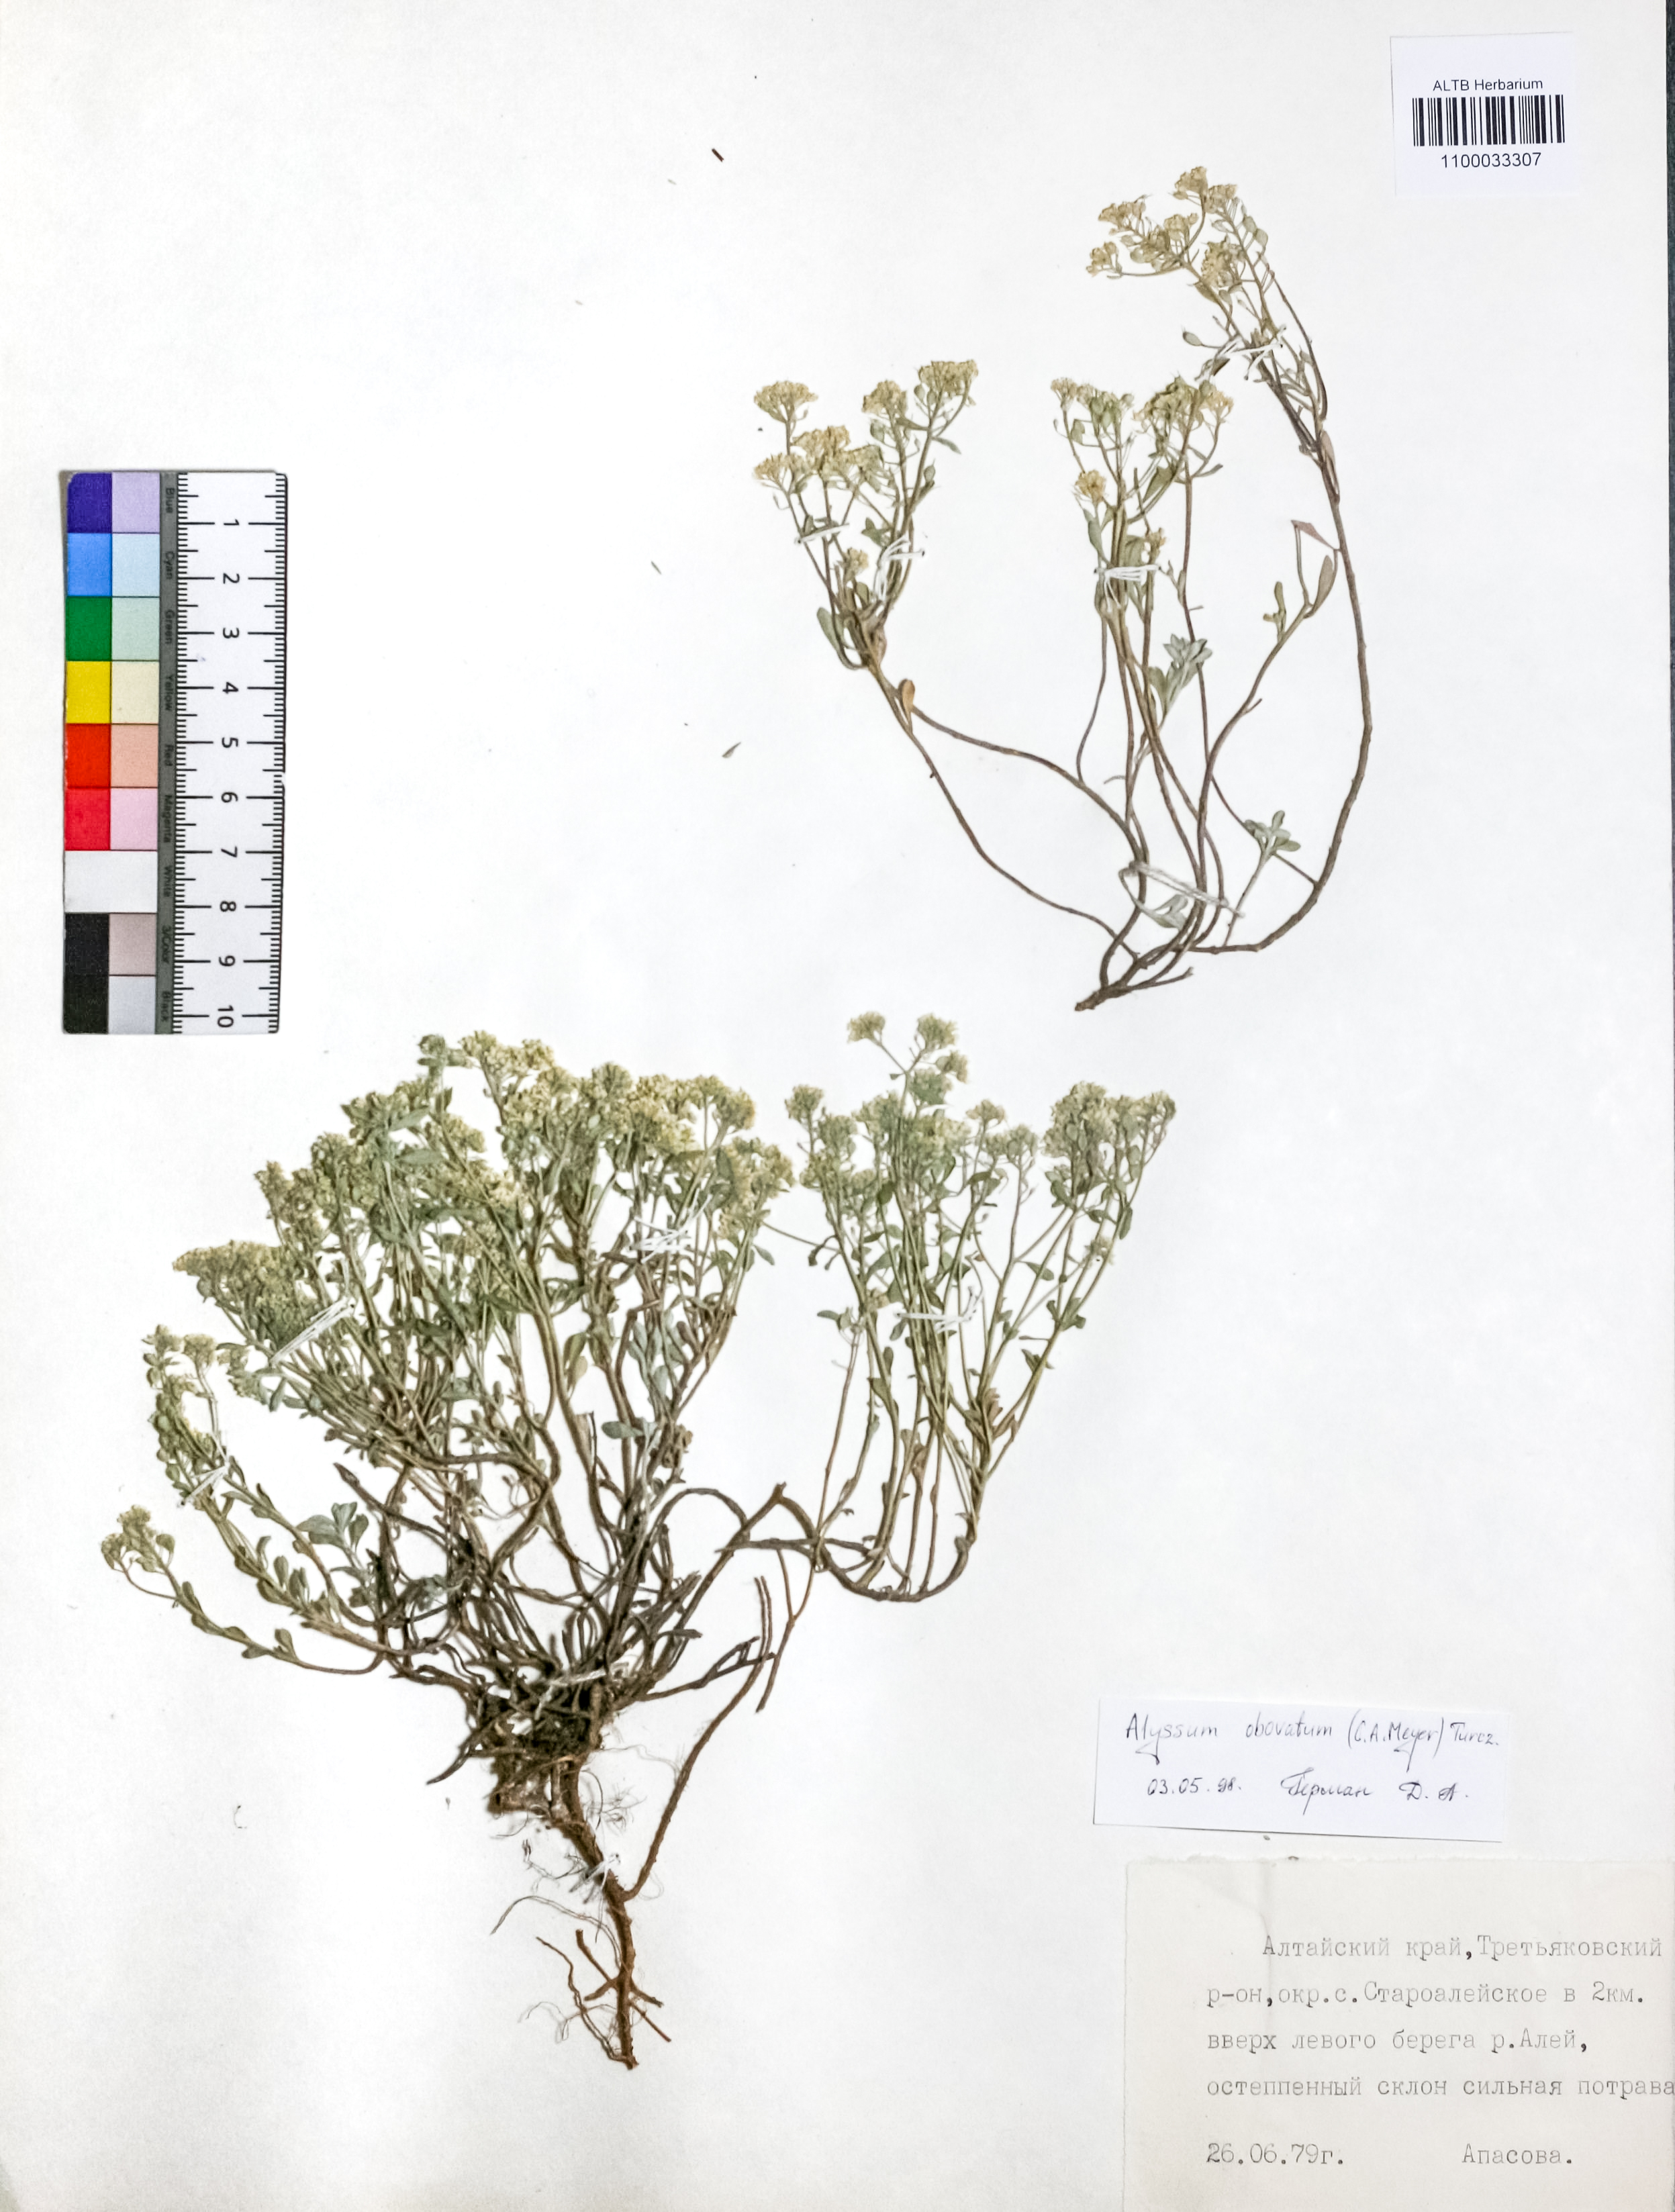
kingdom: Plantae
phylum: Tracheophyta
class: Magnoliopsida
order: Brassicales
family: Brassicaceae
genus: Odontarrhena
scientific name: Odontarrhena obovata
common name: American alyssum
